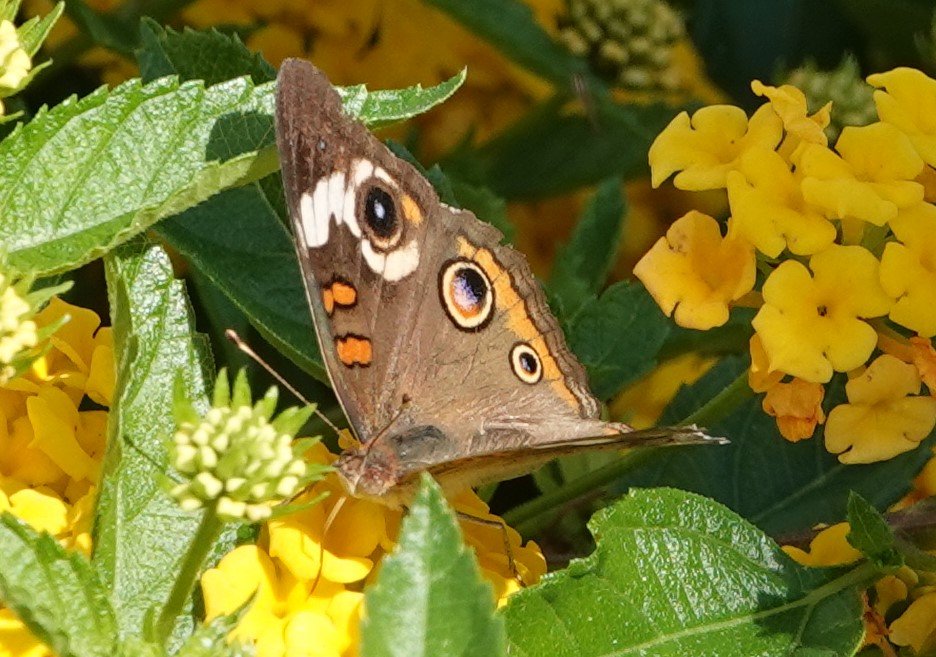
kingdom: Animalia
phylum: Arthropoda
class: Insecta
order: Lepidoptera
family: Nymphalidae
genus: Junonia
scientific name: Junonia coenia
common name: Common Buckeye
